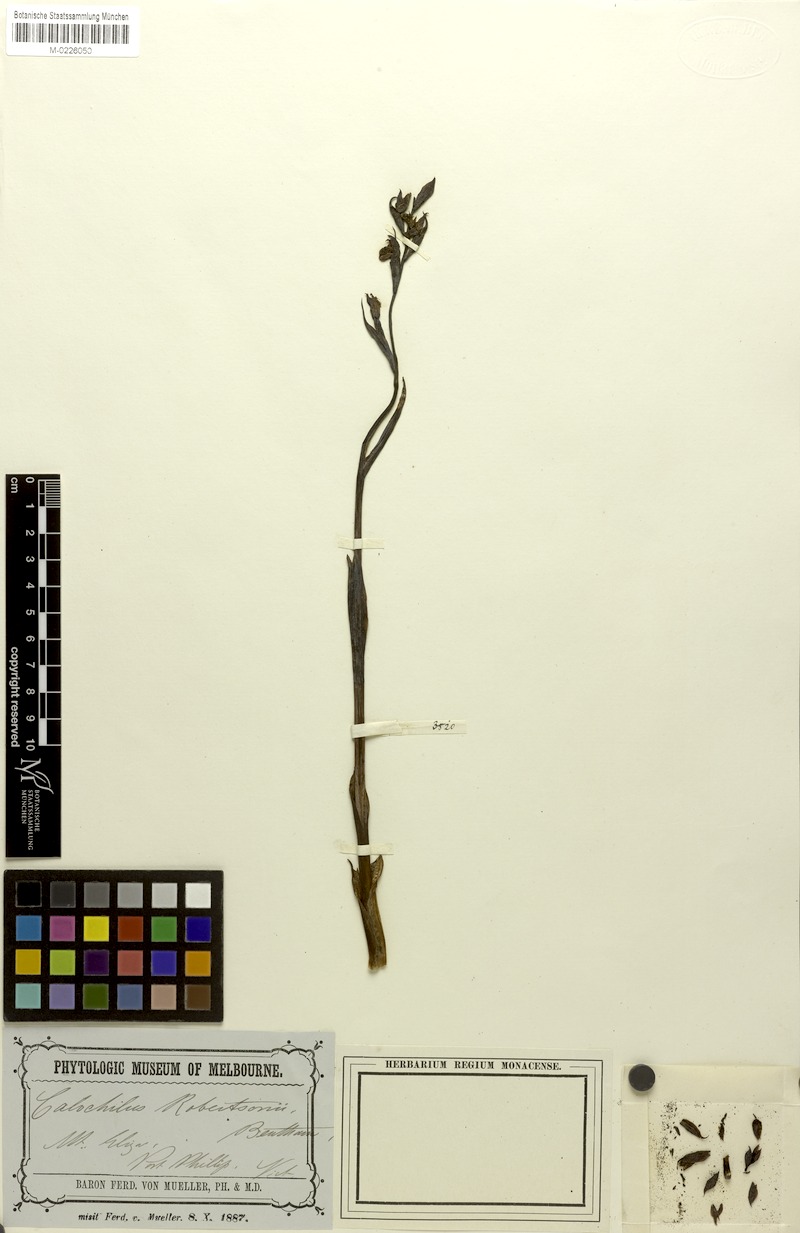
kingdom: Plantae
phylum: Tracheophyta
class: Liliopsida
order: Asparagales
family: Orchidaceae
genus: Calochilus
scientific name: Calochilus robertsonii
